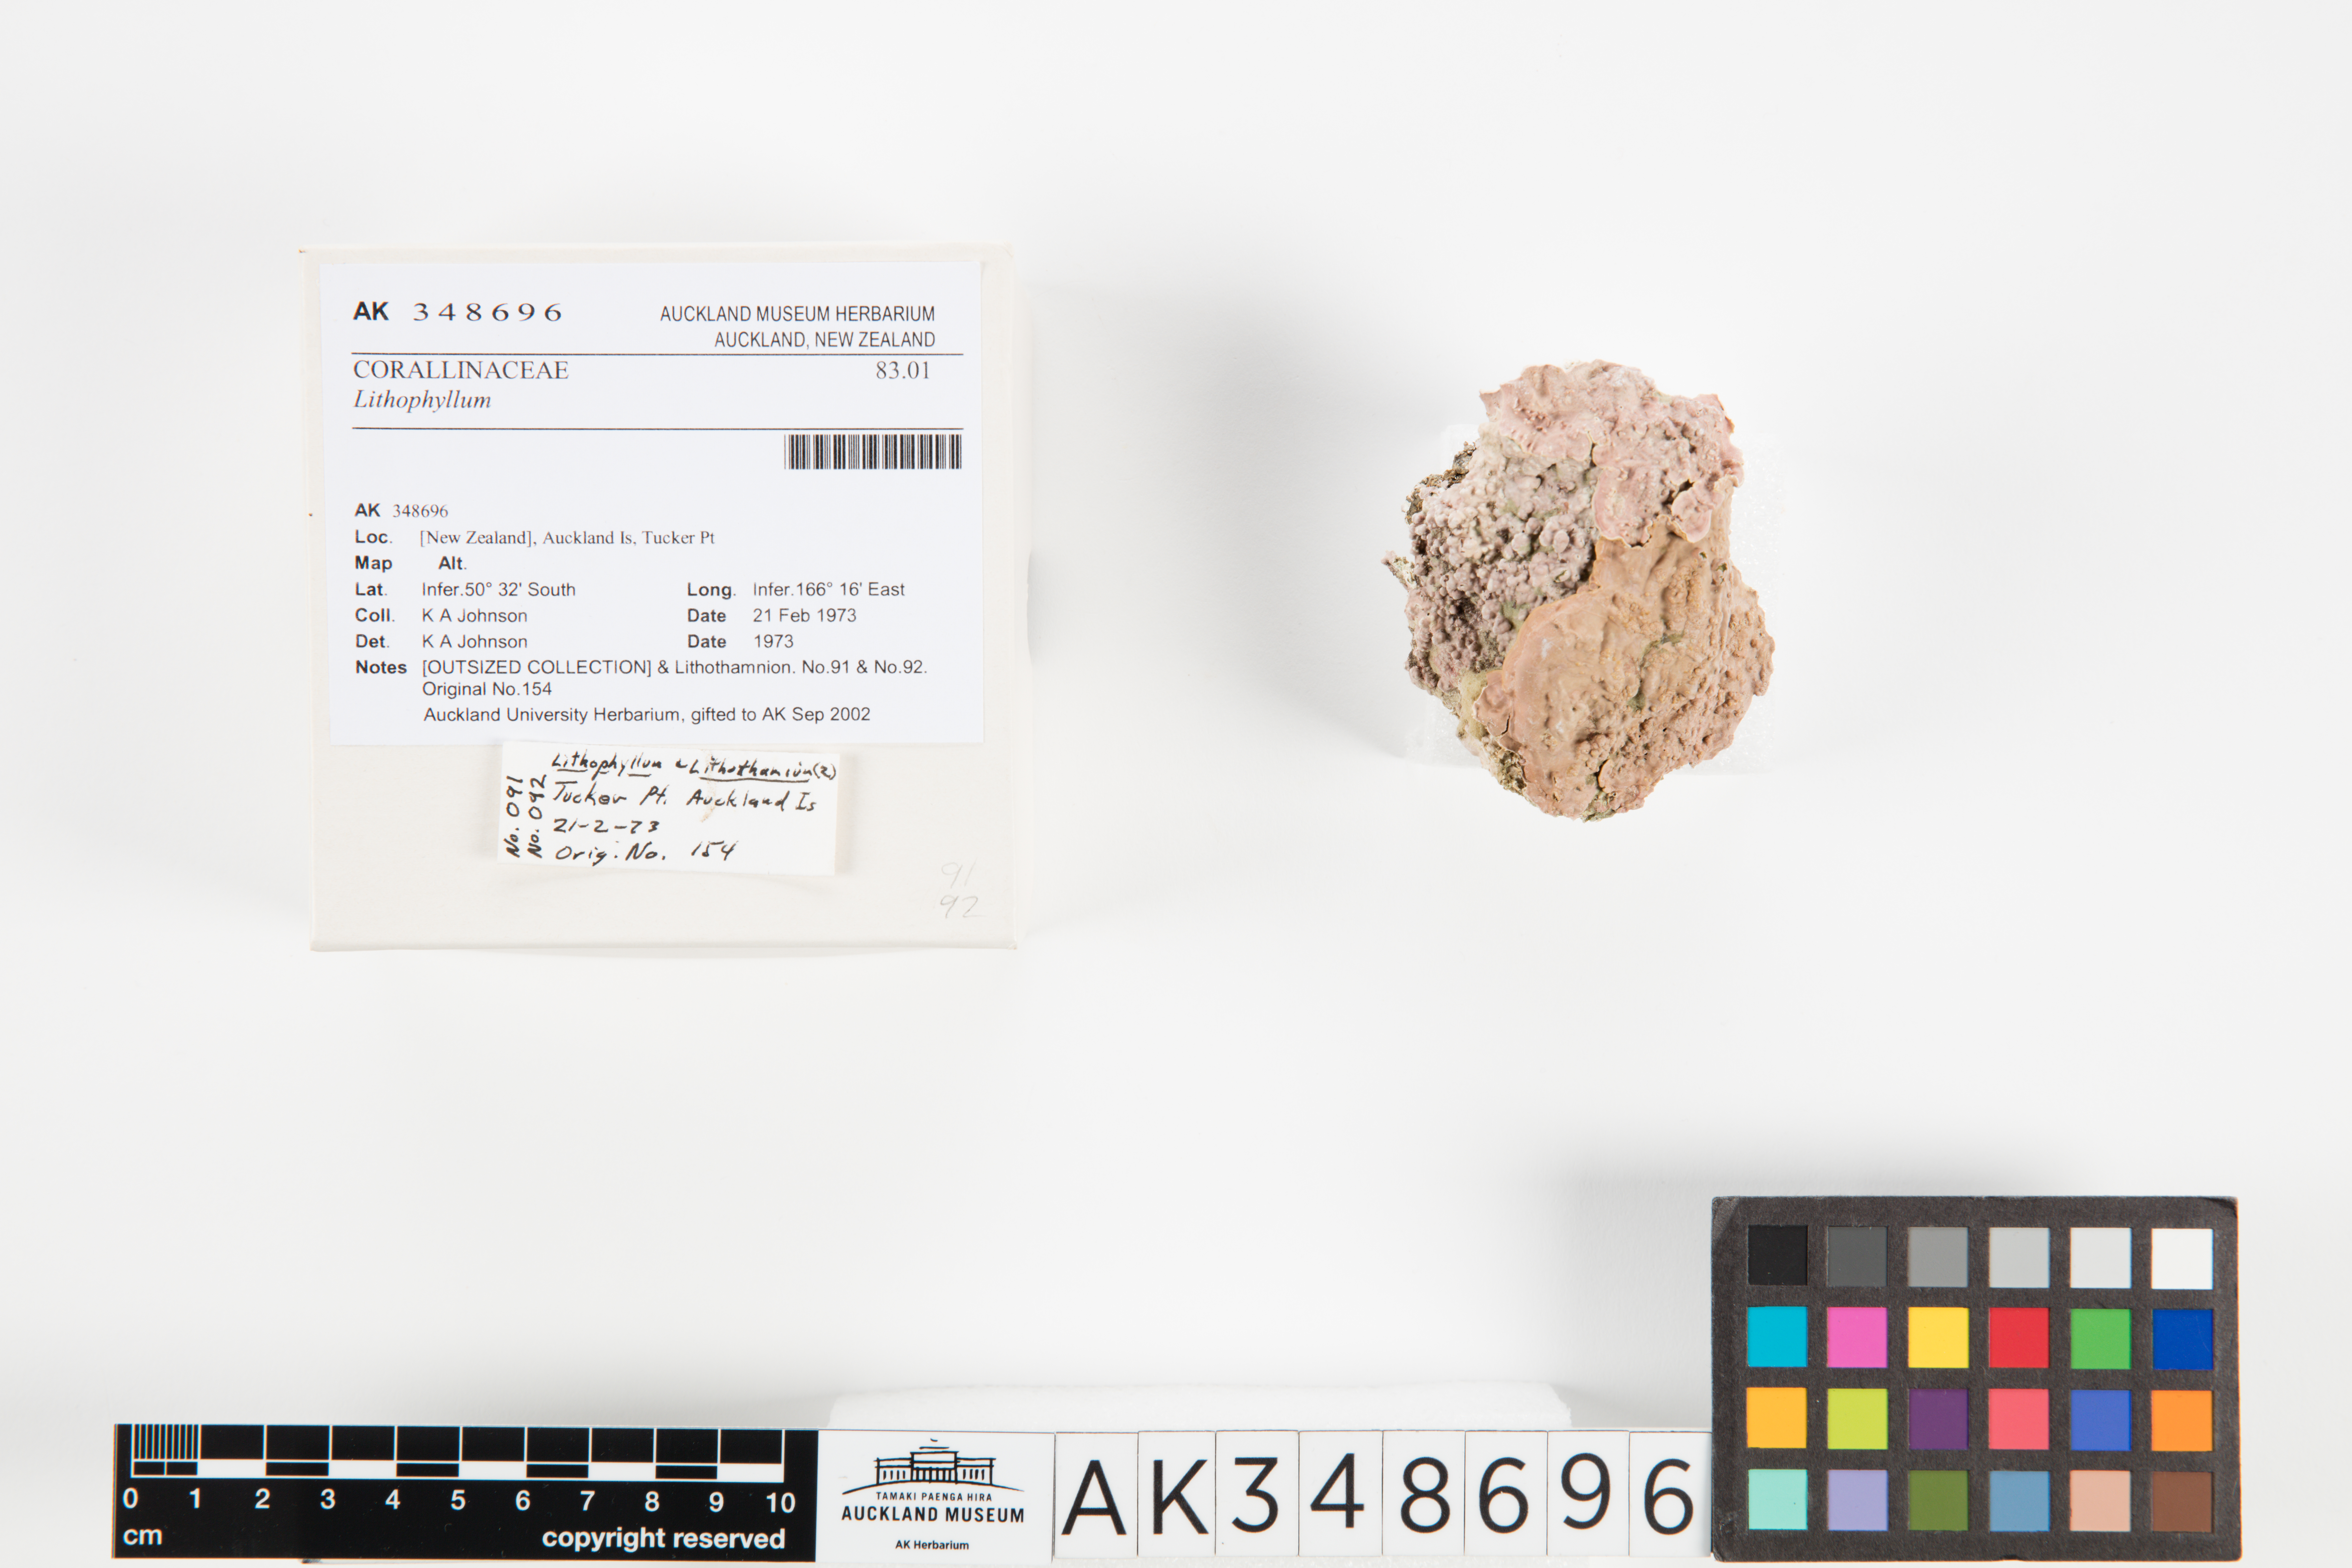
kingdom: Animalia
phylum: Cnidaria
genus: Lithophyllum
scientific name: Lithophyllum
